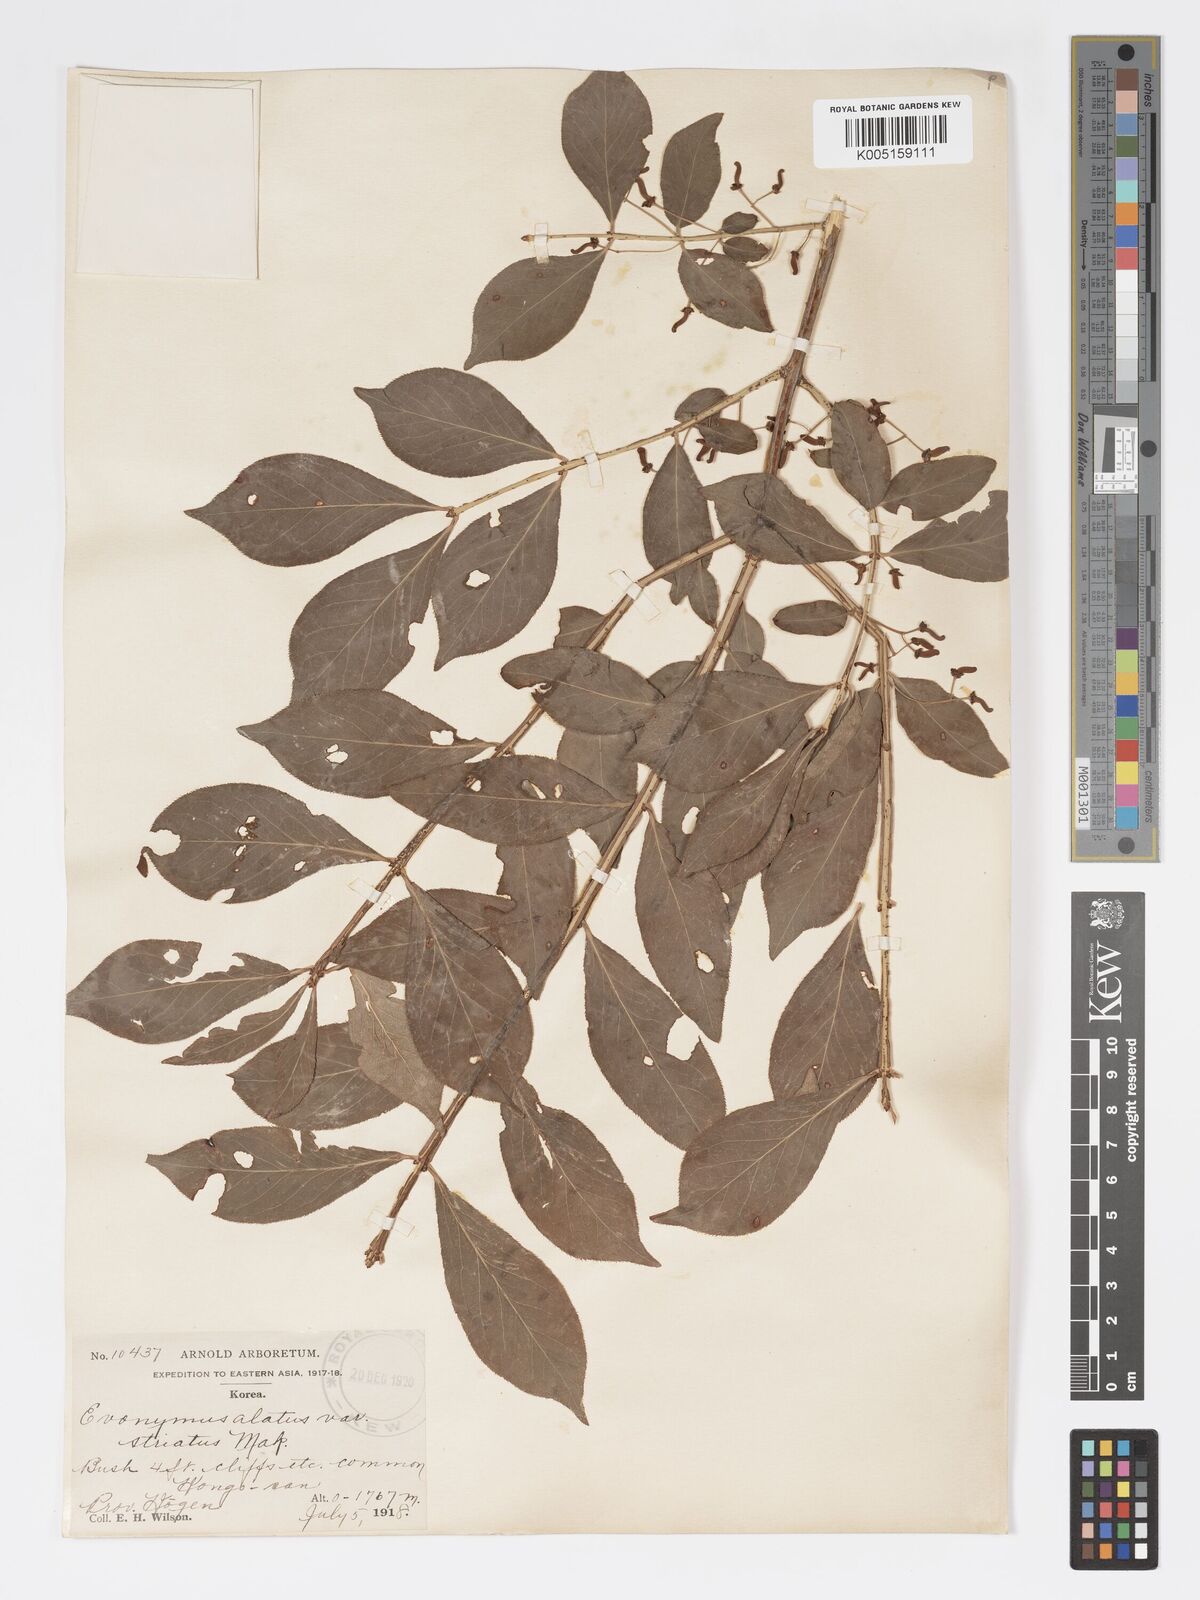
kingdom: Plantae
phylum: Tracheophyta
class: Magnoliopsida
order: Celastrales
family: Celastraceae
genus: Euonymus
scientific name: Euonymus
